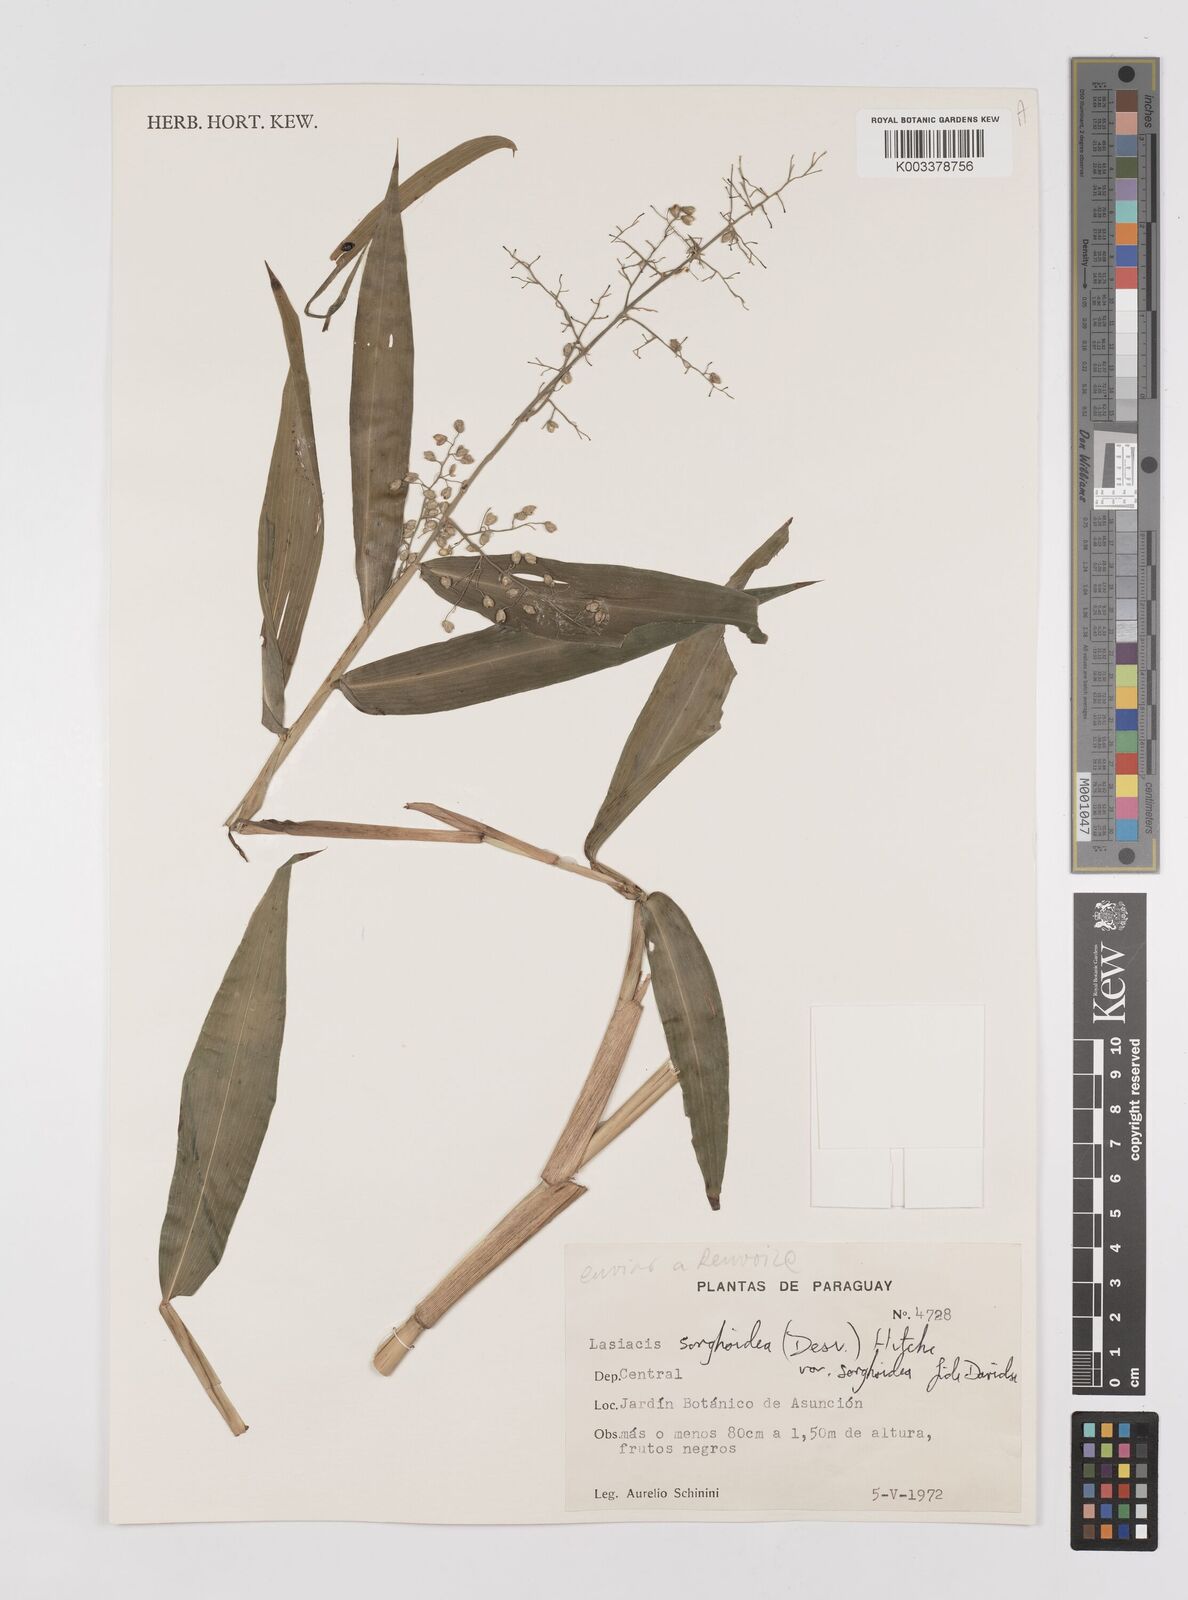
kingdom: Plantae
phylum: Tracheophyta
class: Liliopsida
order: Poales
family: Poaceae
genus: Lasiacis
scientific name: Lasiacis maculata
